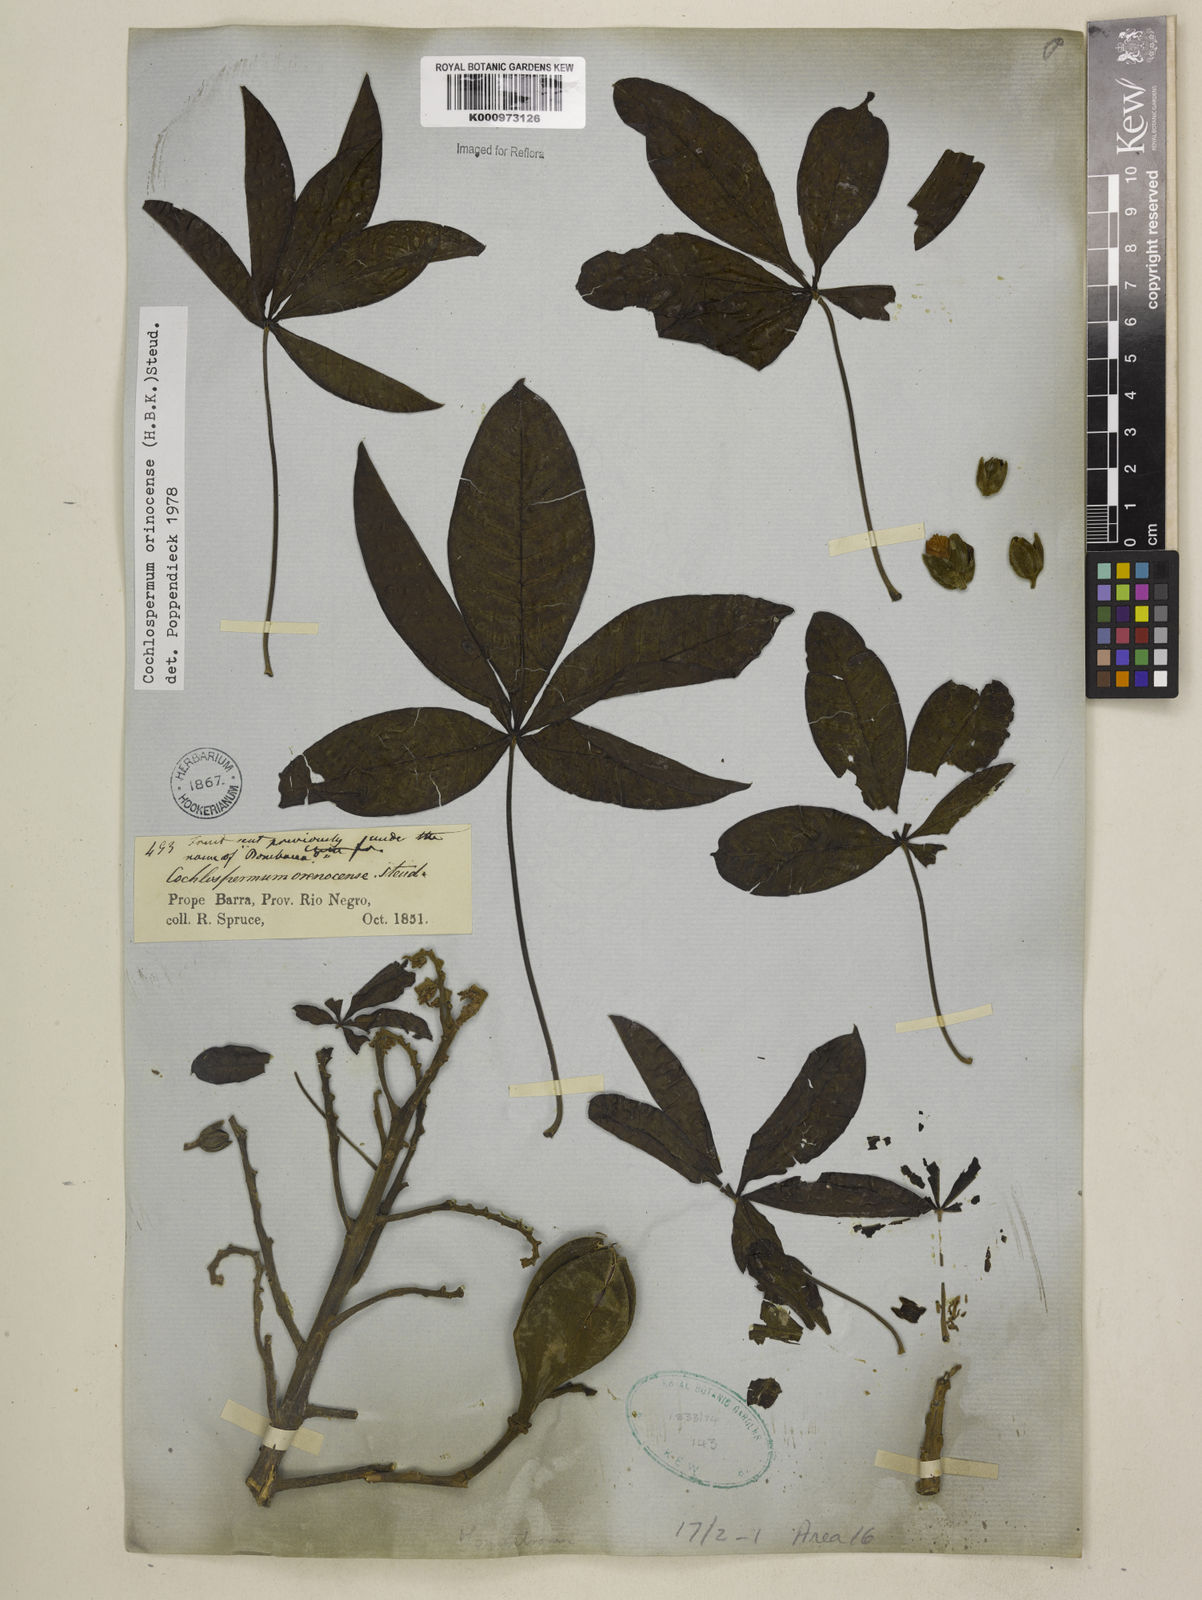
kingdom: Plantae
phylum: Tracheophyta
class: Magnoliopsida
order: Malvales
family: Cochlospermaceae
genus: Cochlospermum
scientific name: Cochlospermum orinocense
